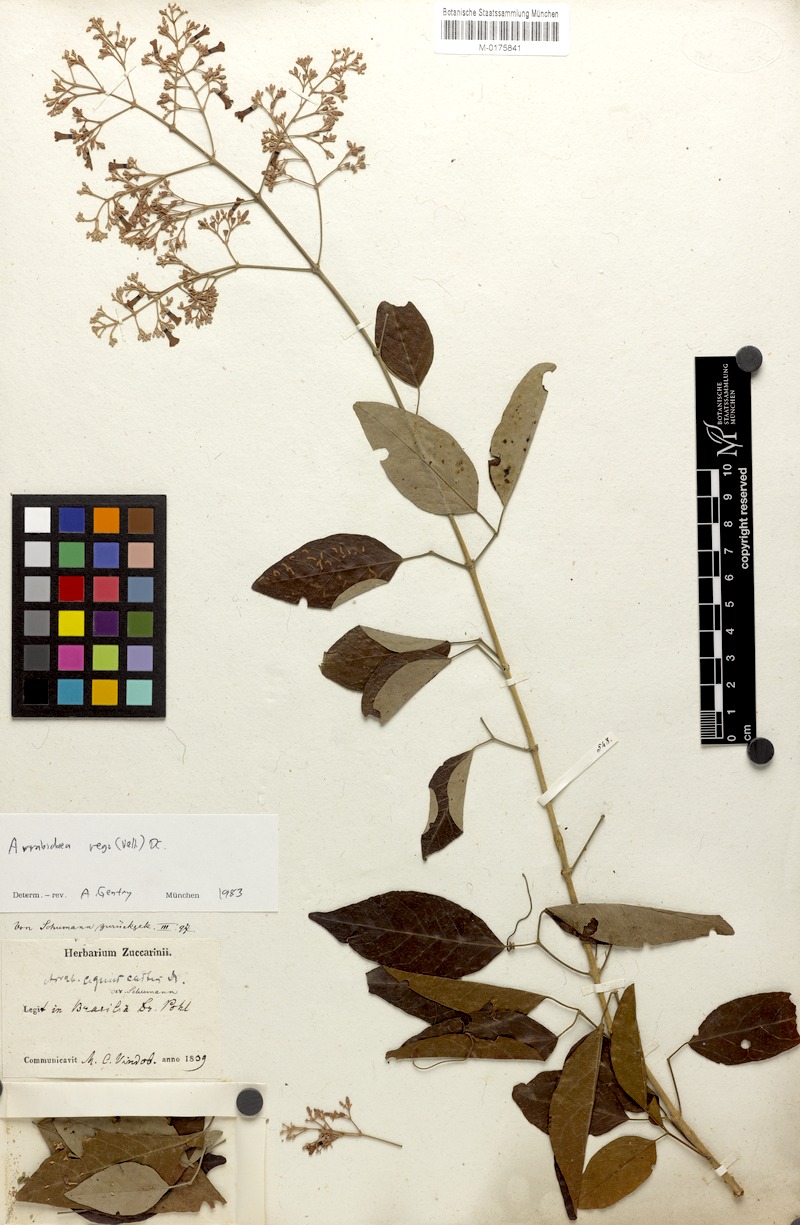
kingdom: Plantae
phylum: Tracheophyta
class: Magnoliopsida
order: Lamiales
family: Bignoniaceae
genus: Fridericia
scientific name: Fridericia rego
